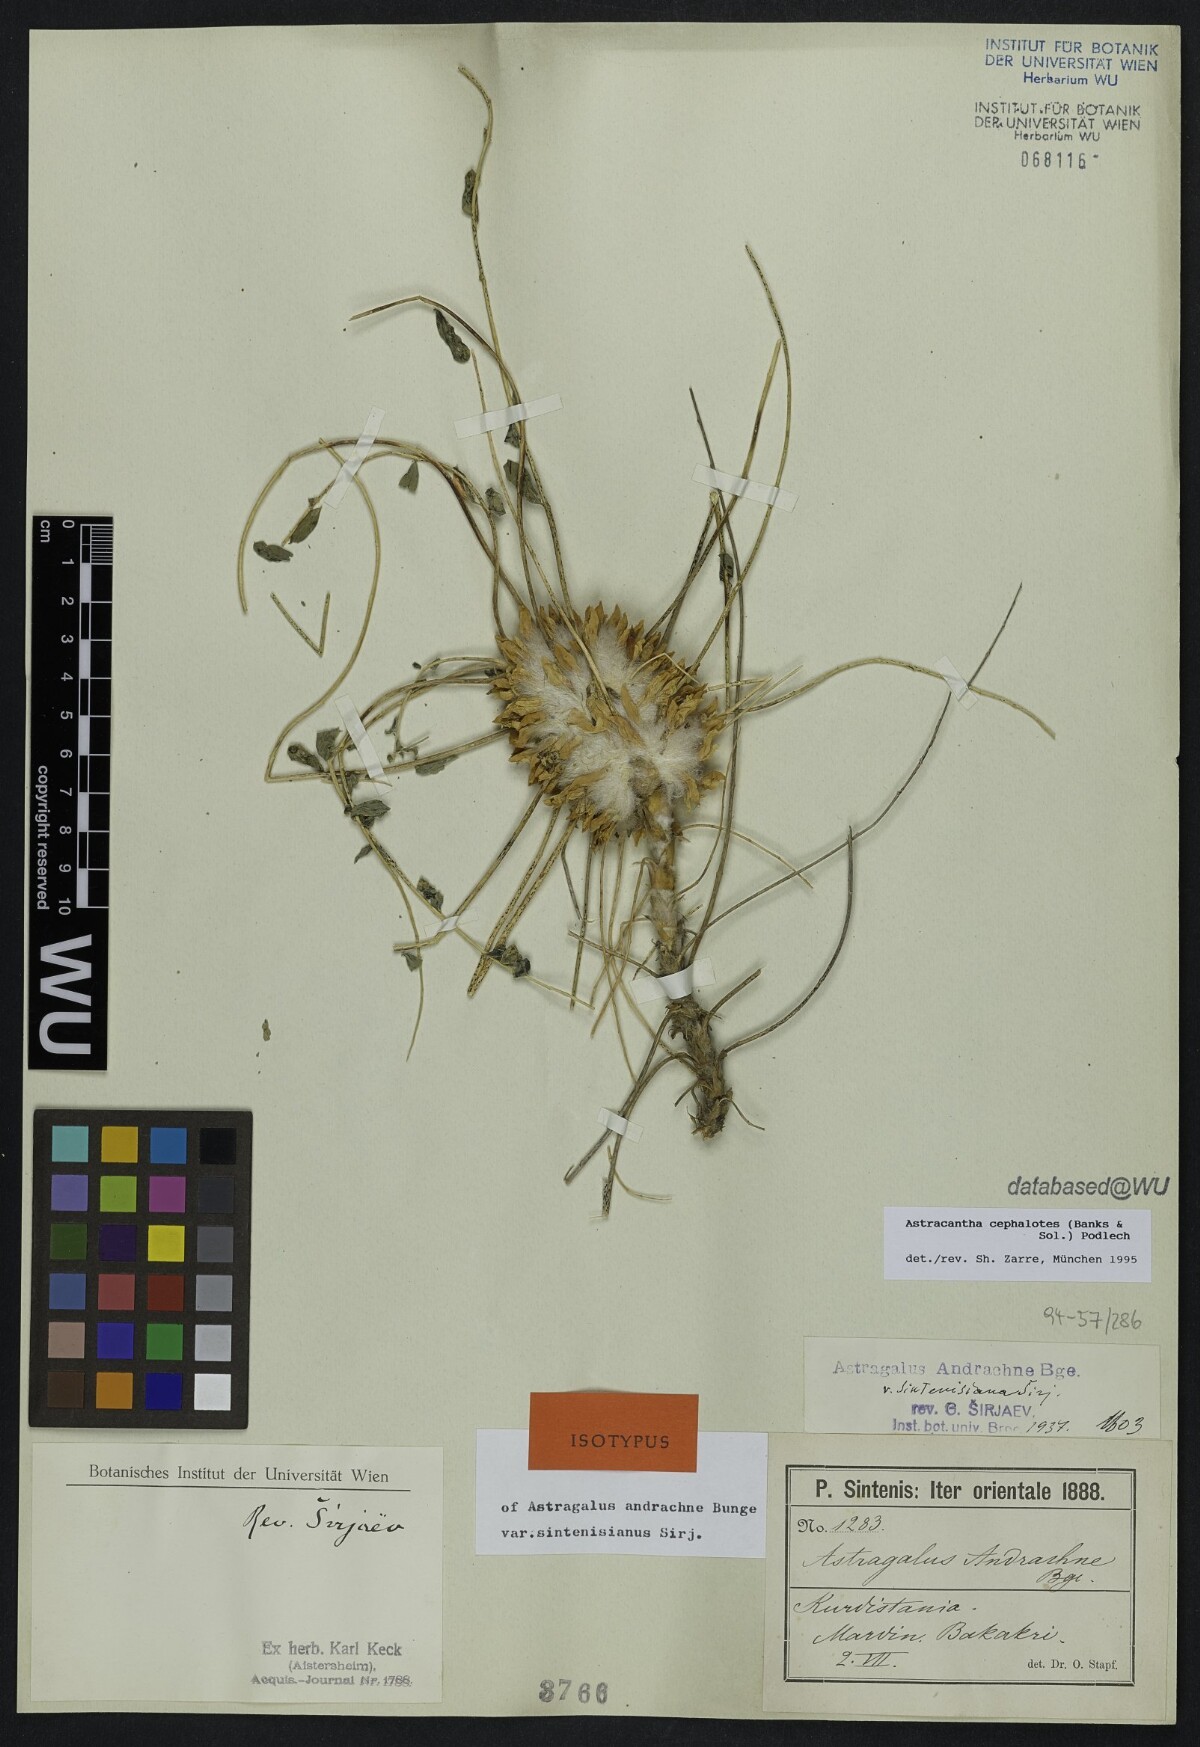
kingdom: Plantae
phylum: Tracheophyta
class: Magnoliopsida
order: Fabales
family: Fabaceae
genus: Astragalus
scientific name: Astragalus cephalotes
